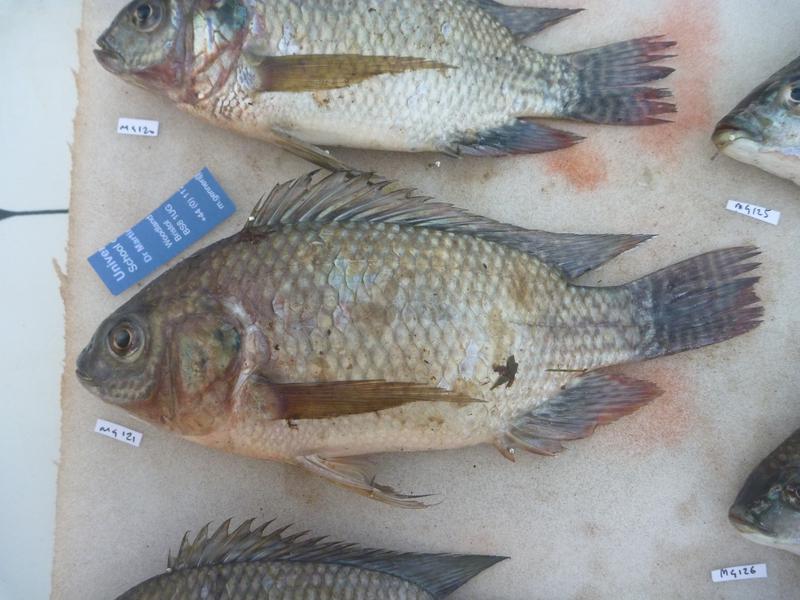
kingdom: Animalia
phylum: Chordata
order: Perciformes
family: Cichlidae
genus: Oreochromis
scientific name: Oreochromis niloticus
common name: Nile tilapia
